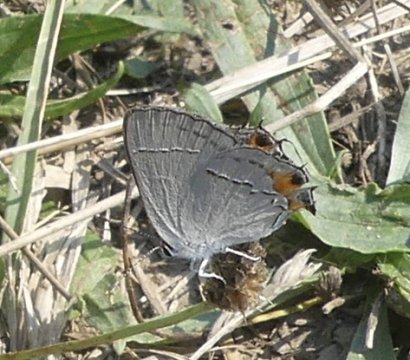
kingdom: Animalia
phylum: Arthropoda
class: Insecta
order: Lepidoptera
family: Lycaenidae
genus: Strymon
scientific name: Strymon melinus
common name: Gray Hairstreak
